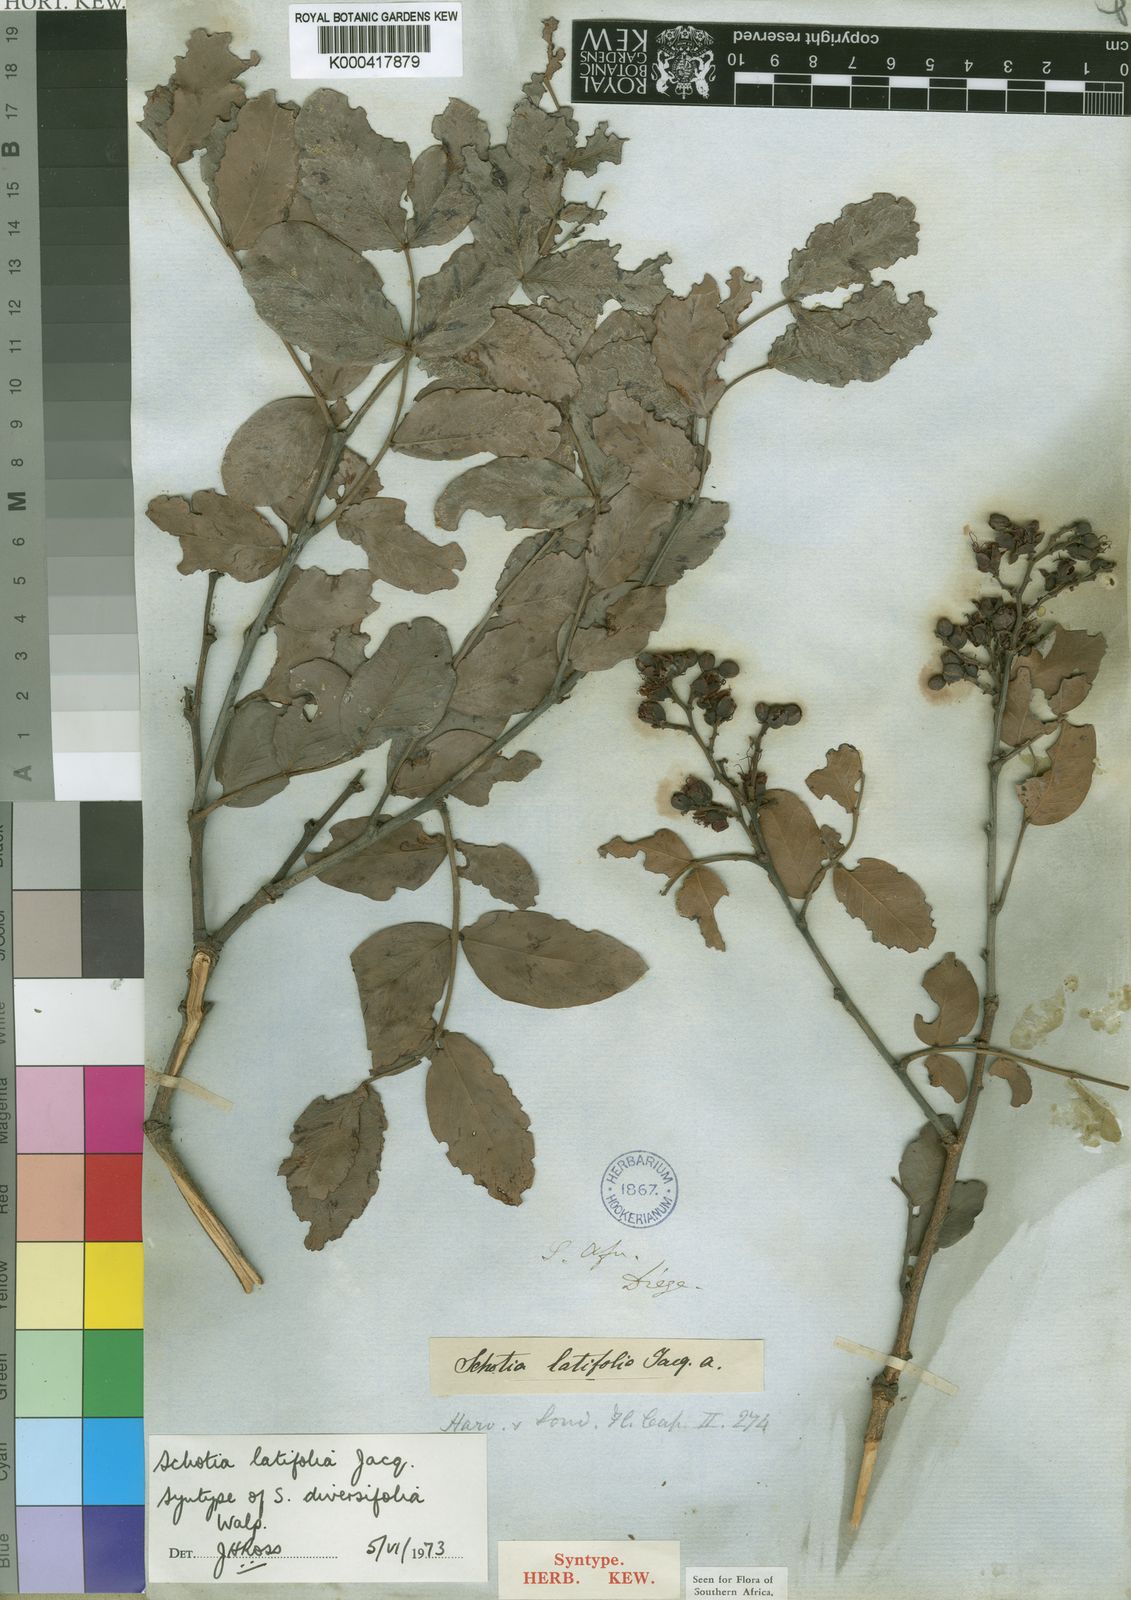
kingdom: Plantae
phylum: Tracheophyta
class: Magnoliopsida
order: Fabales
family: Fabaceae
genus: Schotia
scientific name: Schotia latifolia
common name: Bush boer-bean
